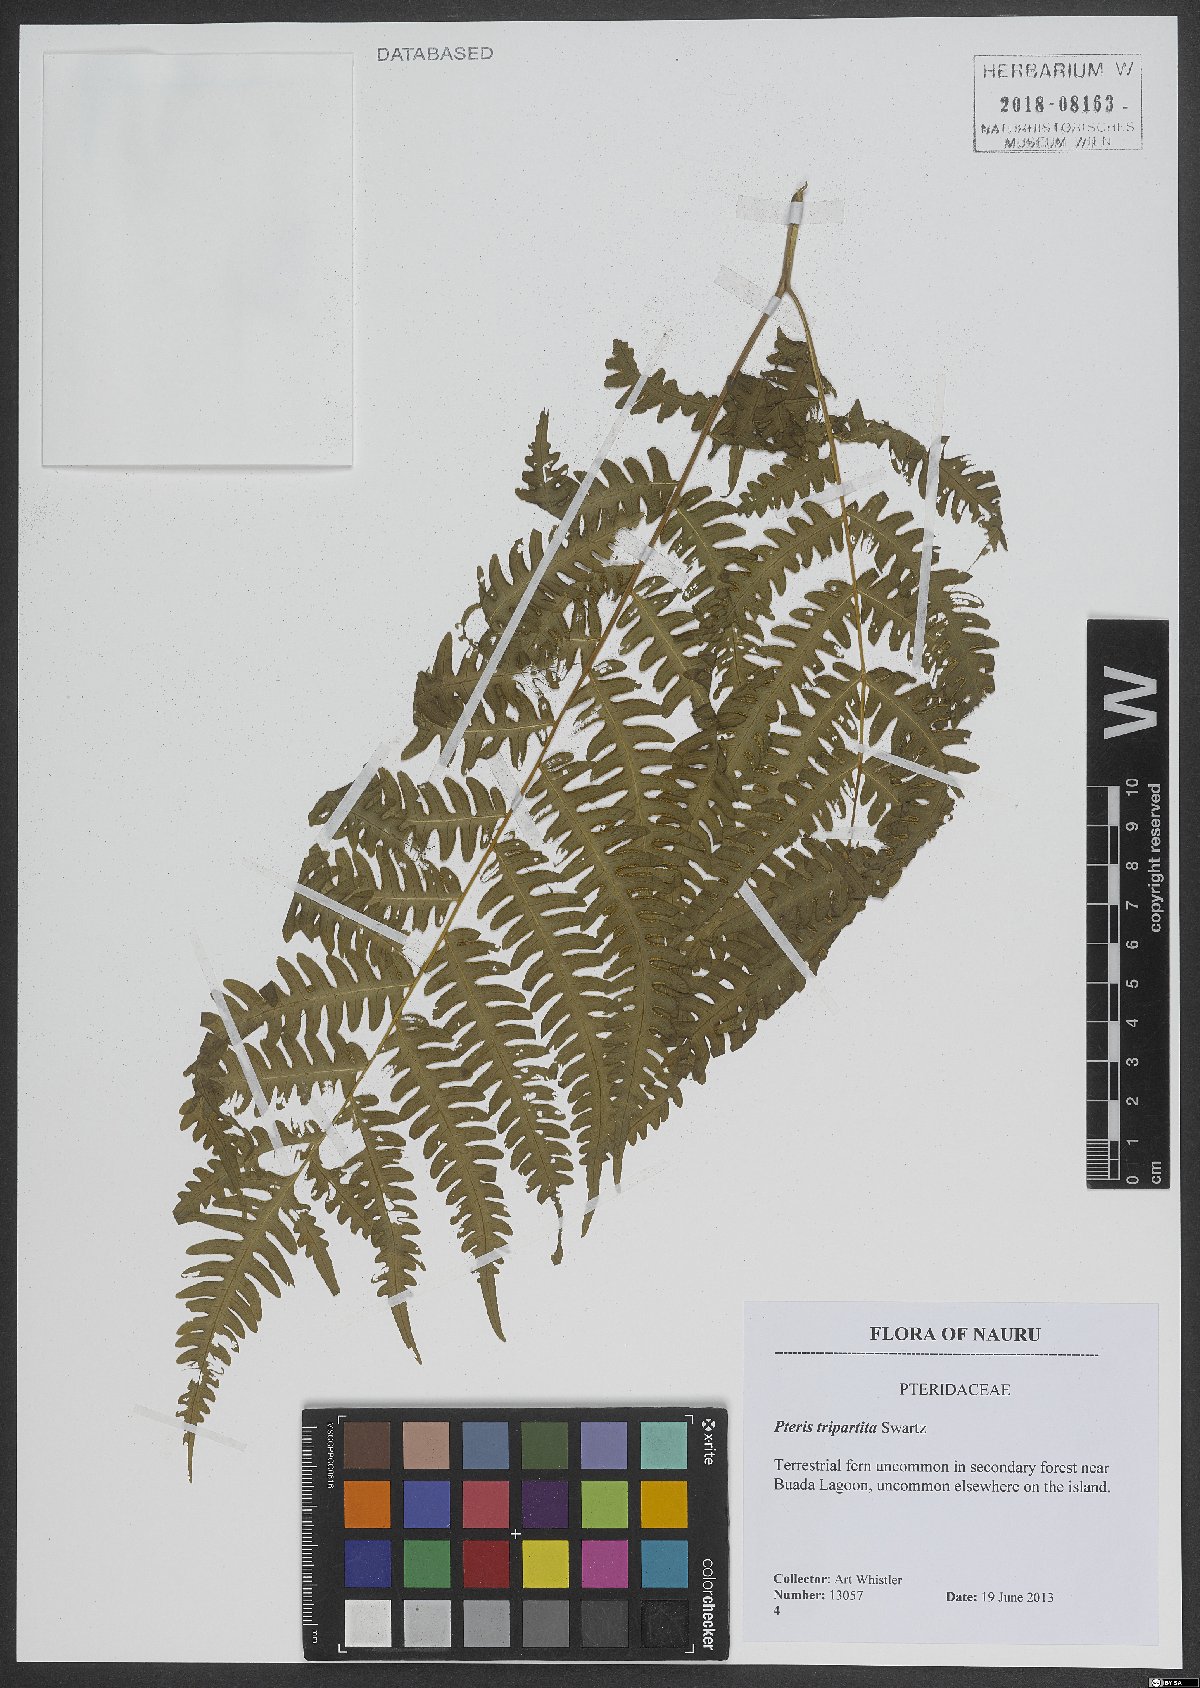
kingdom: Plantae
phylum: Tracheophyta
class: Polypodiopsida
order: Polypodiales
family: Pteridaceae
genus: Pteris
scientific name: Pteris tripartita
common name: Giant brake
